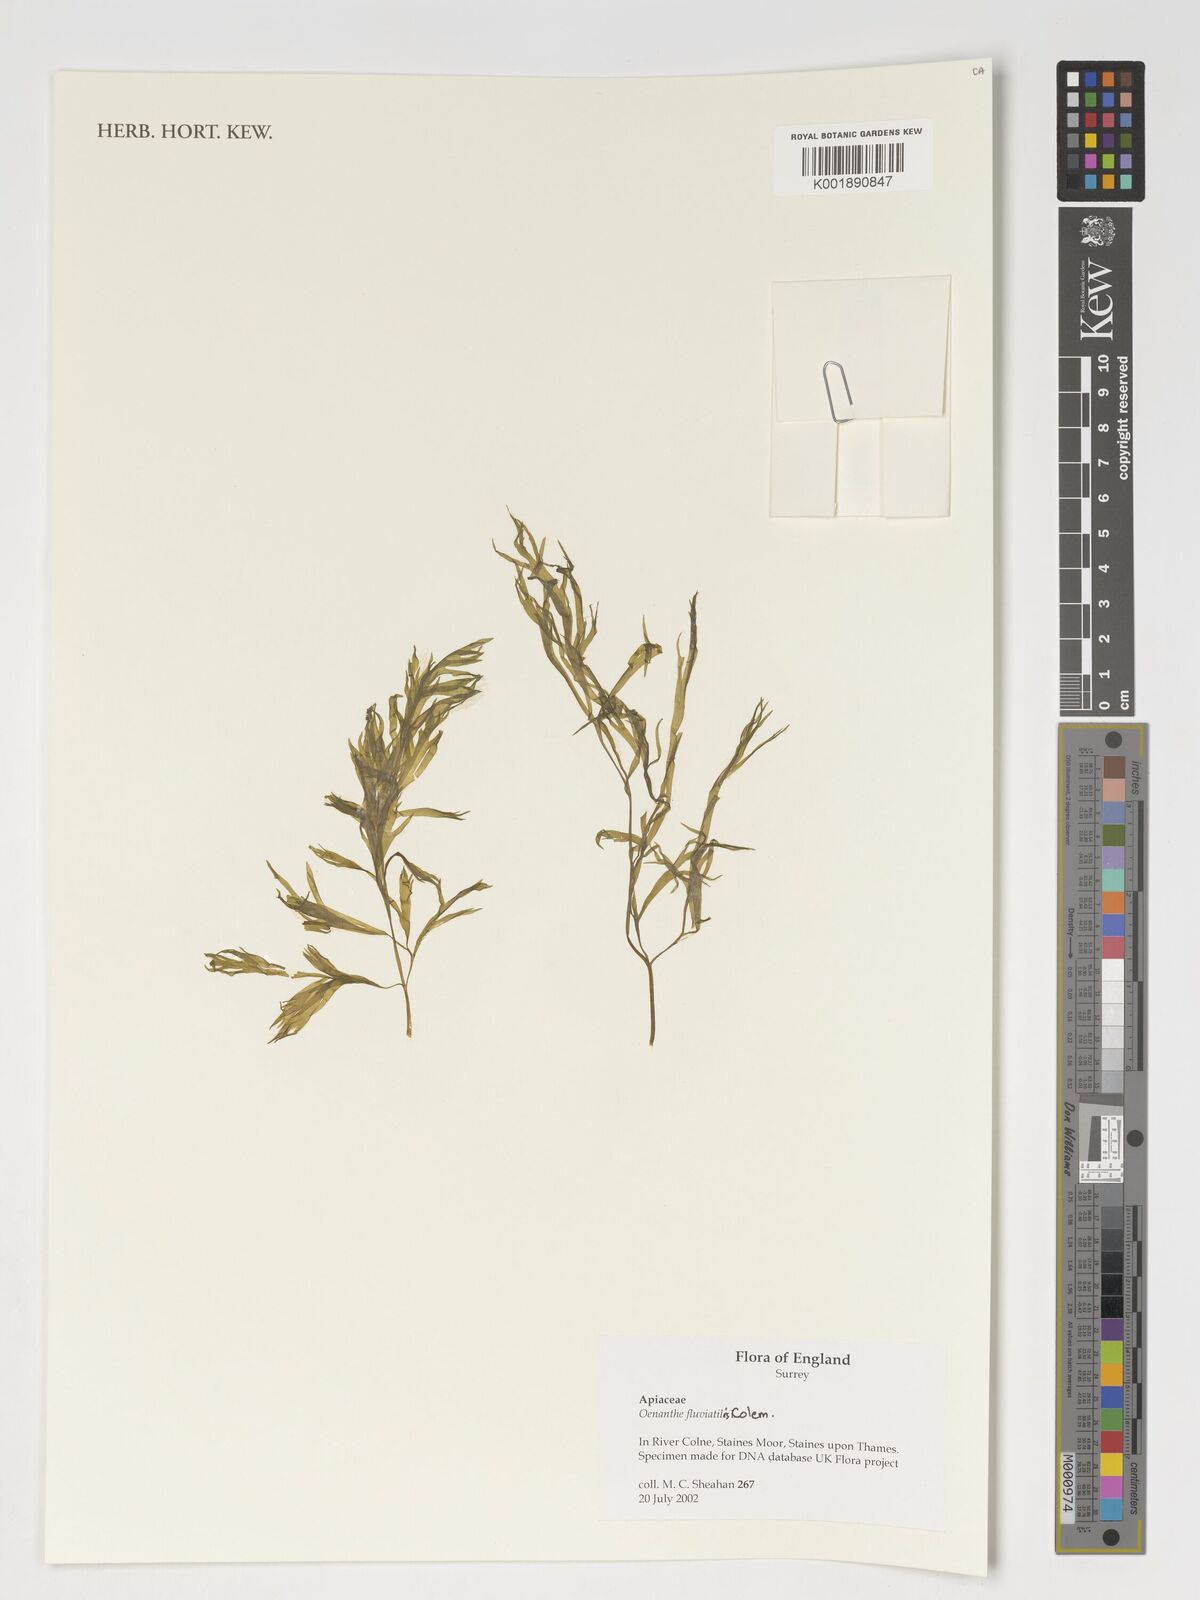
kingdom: Plantae
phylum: Tracheophyta
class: Magnoliopsida
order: Apiales
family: Apiaceae
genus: Oenanthe
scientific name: Oenanthe fluviatilis
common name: River water-dropwort
